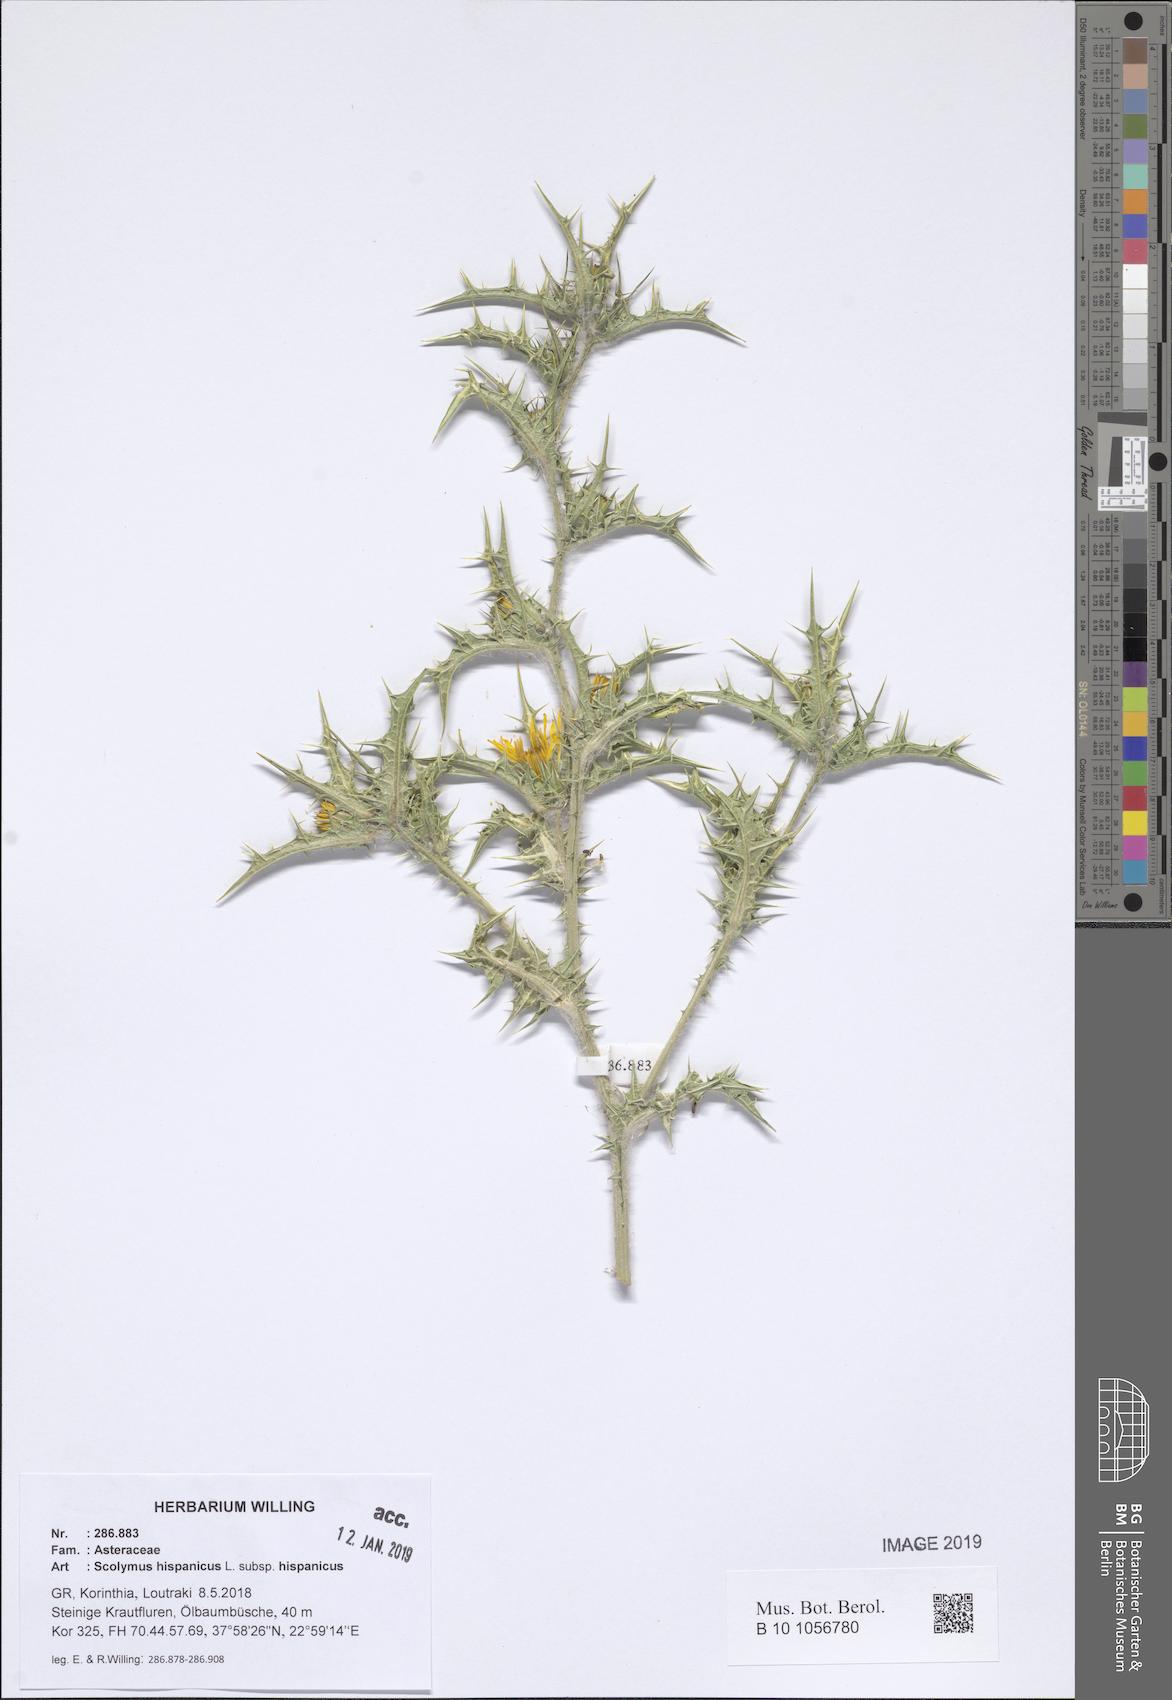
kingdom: Plantae
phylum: Tracheophyta
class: Magnoliopsida
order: Asterales
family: Asteraceae
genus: Scolymus
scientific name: Scolymus hispanicus
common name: Golden thistle
